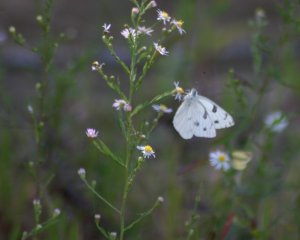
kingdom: Animalia
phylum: Arthropoda
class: Insecta
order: Lepidoptera
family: Pieridae
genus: Pieris
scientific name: Pieris rapae
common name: Cabbage White
